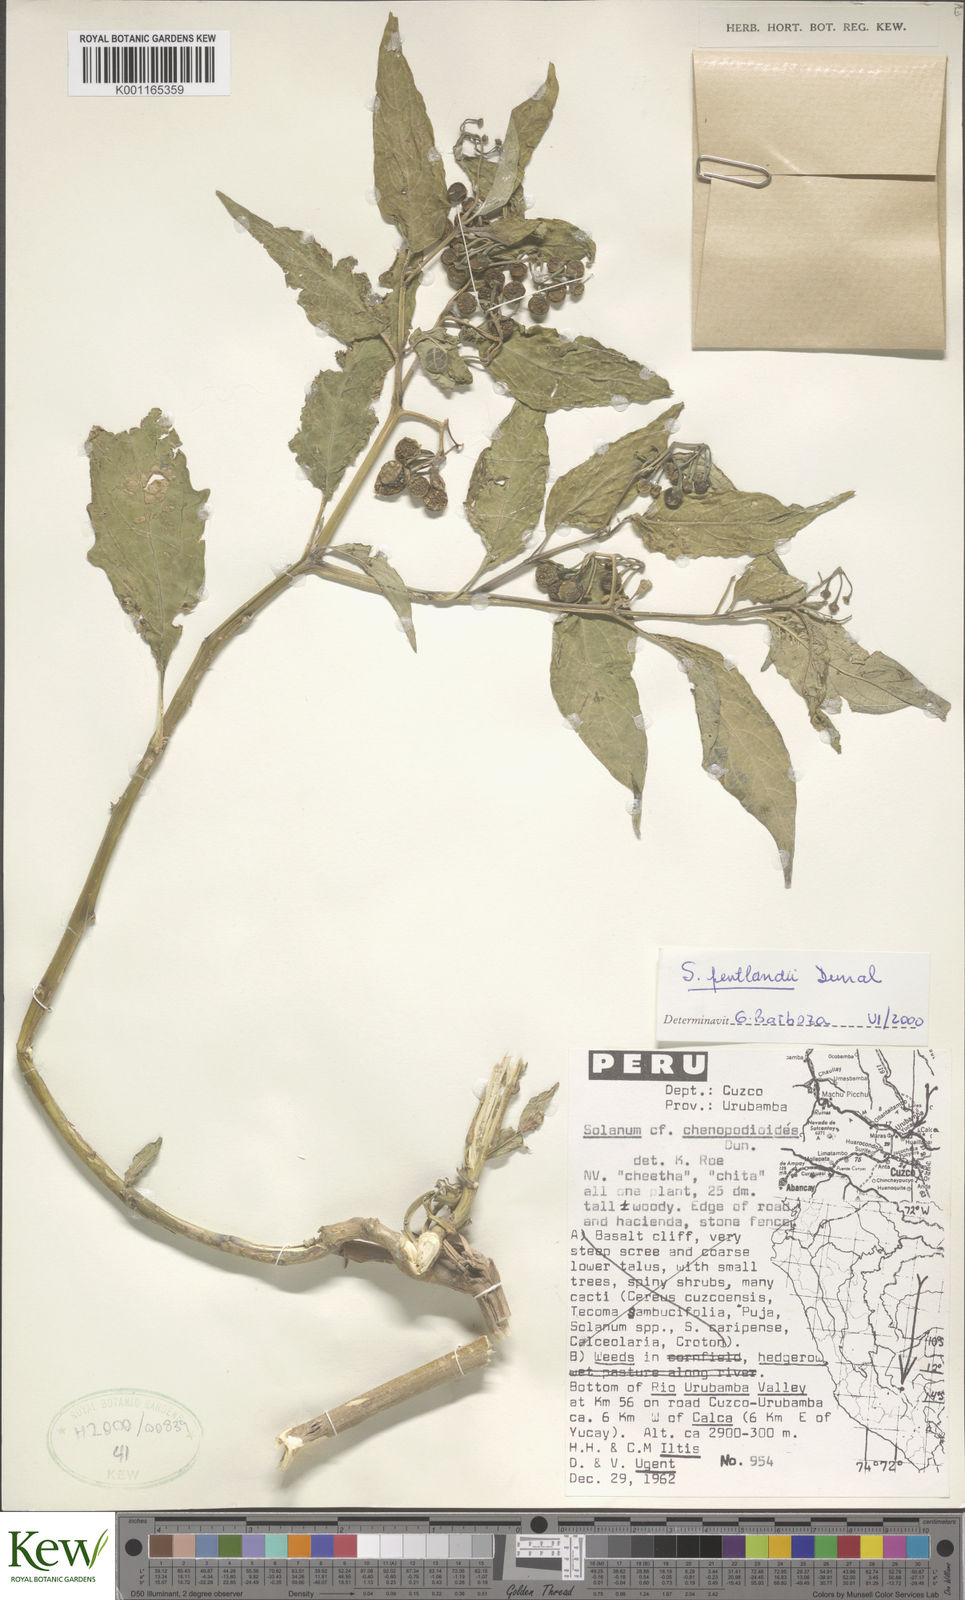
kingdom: Plantae
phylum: Tracheophyta
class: Magnoliopsida
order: Solanales
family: Solanaceae
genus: Solanum
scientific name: Solanum pentlandii
